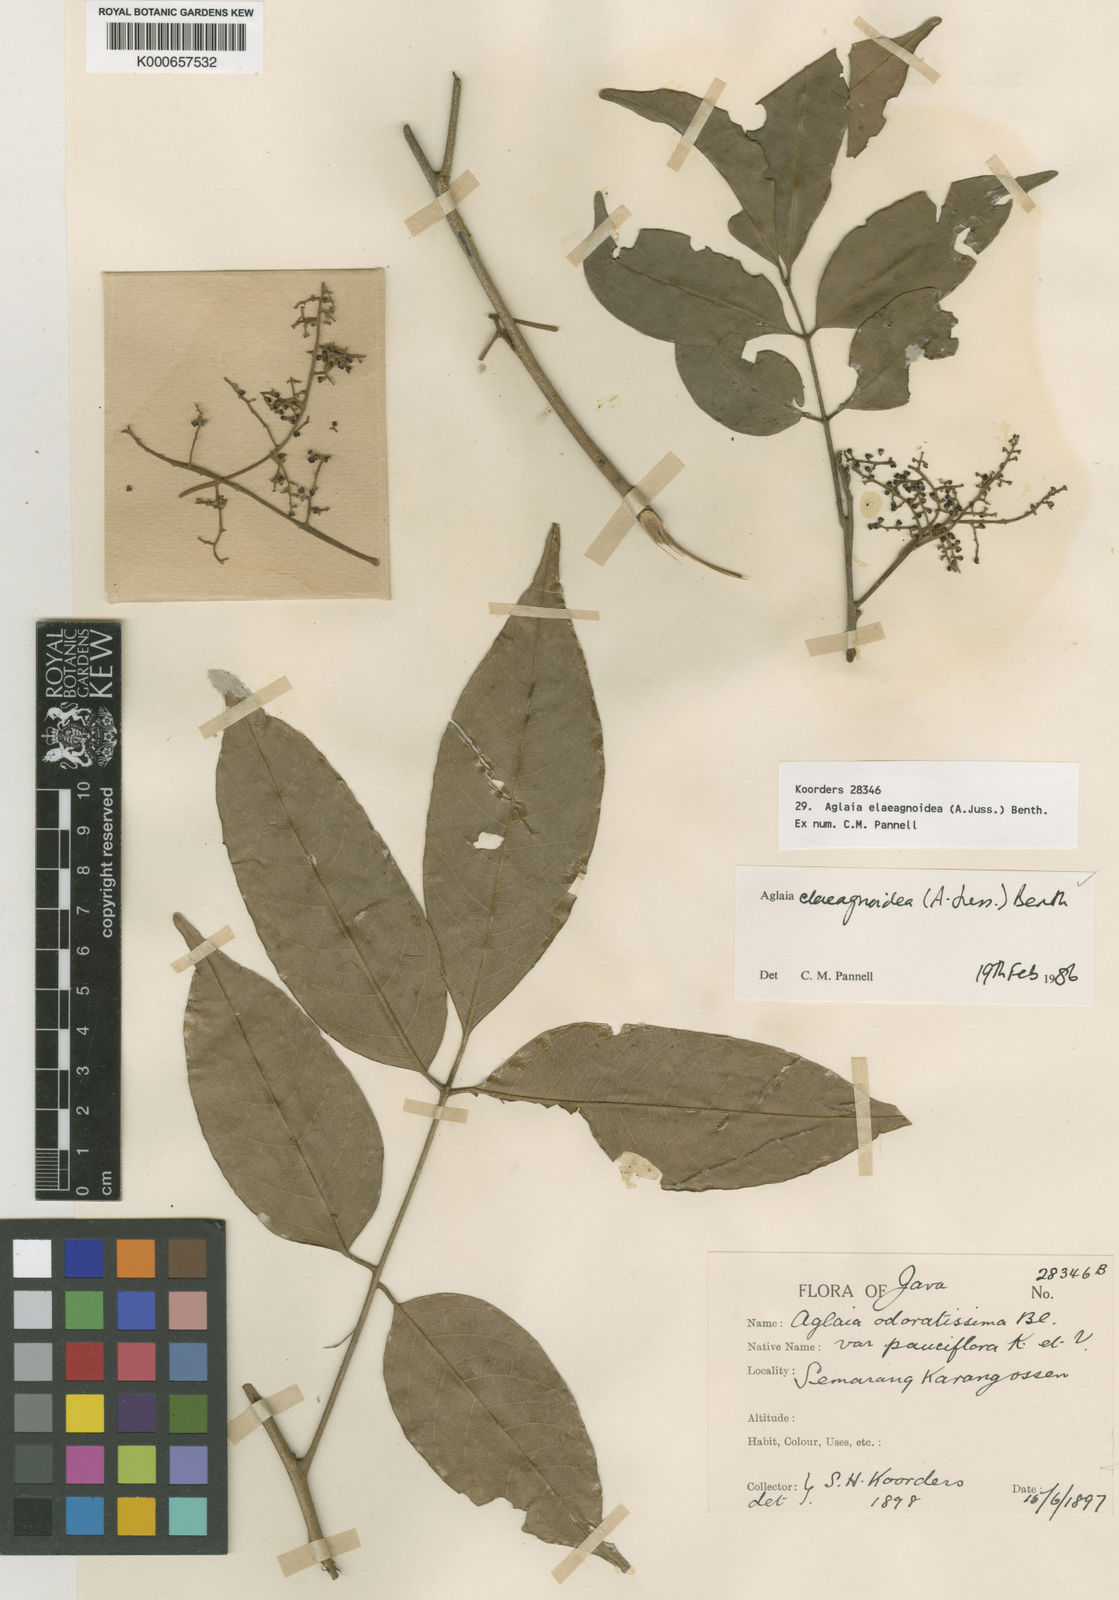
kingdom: Plantae
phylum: Tracheophyta
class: Magnoliopsida
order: Sapindales
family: Meliaceae
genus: Aglaia
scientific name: Aglaia elaeagnoidea
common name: Droopyleaf
